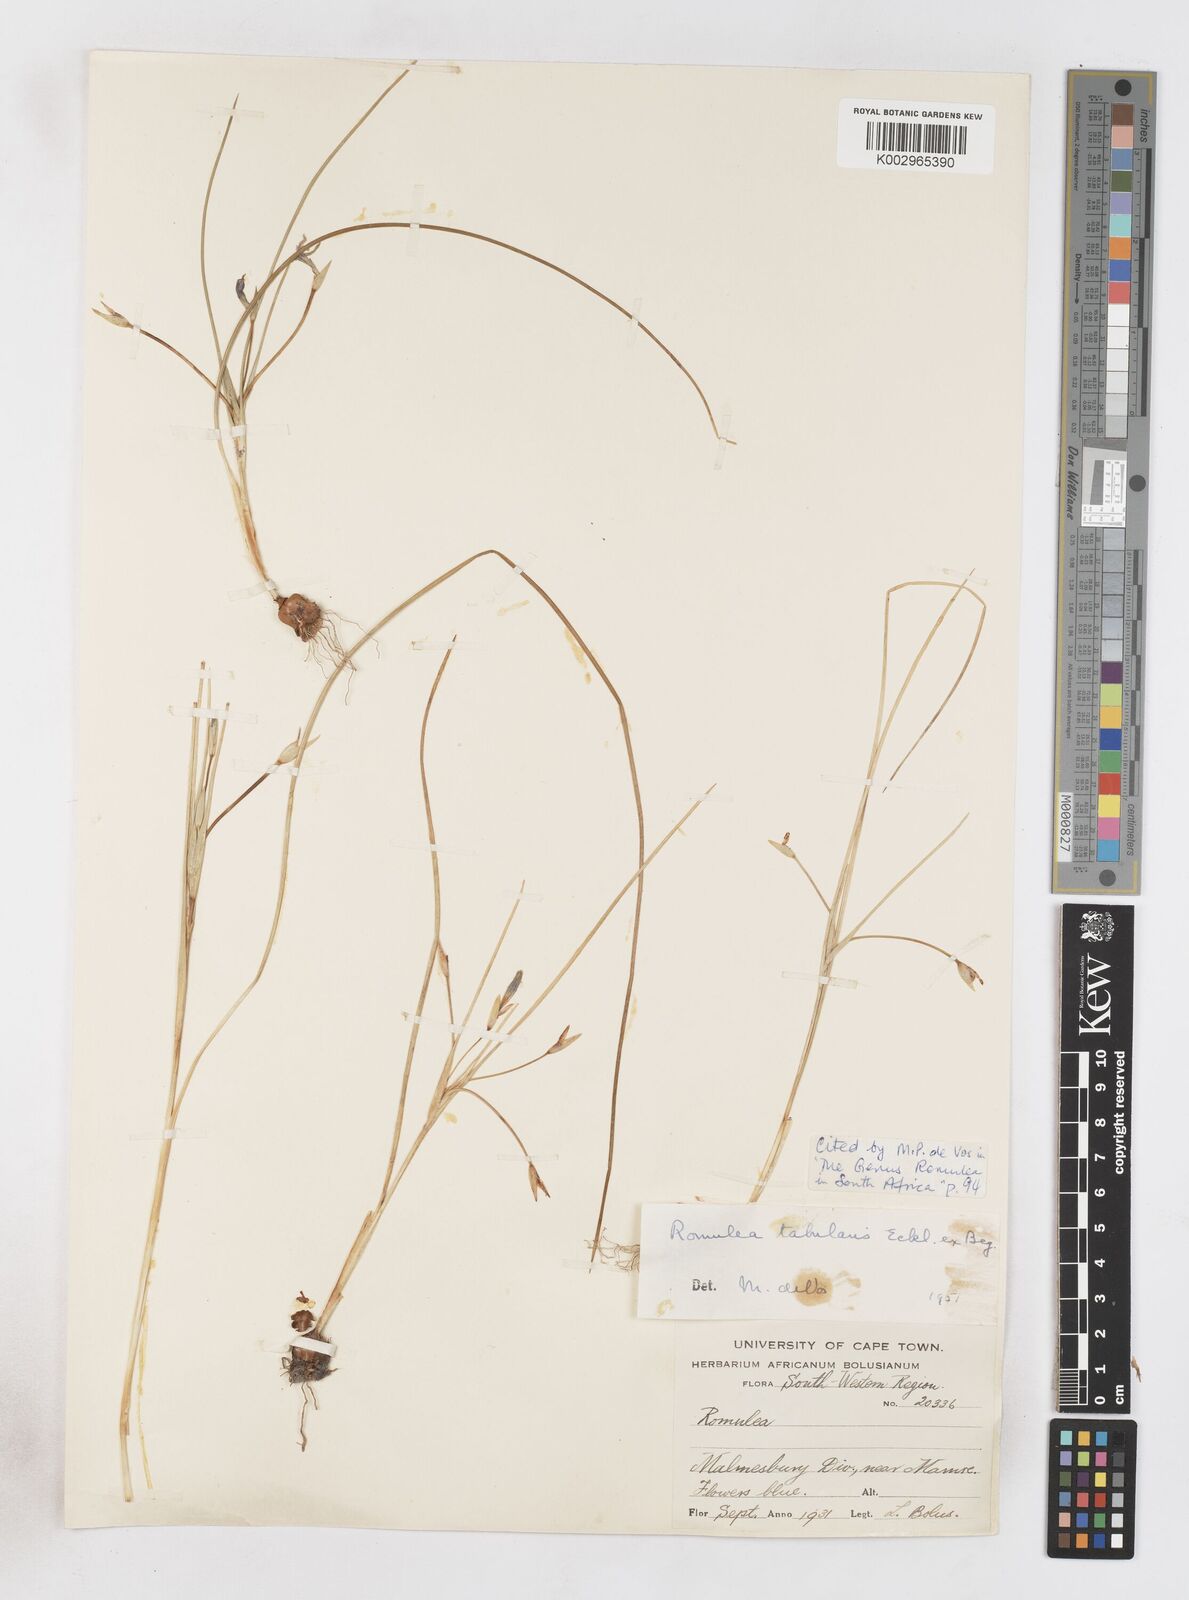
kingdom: Plantae
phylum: Tracheophyta
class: Liliopsida
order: Asparagales
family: Iridaceae
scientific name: Iridaceae
